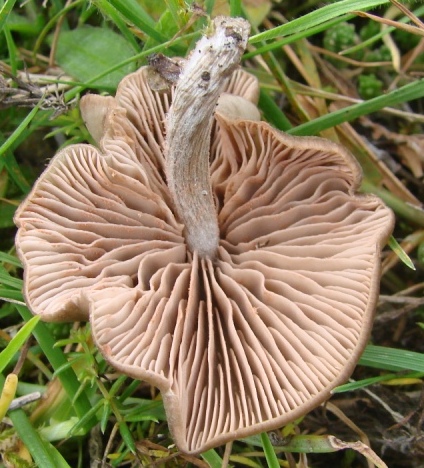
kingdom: Fungi
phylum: Basidiomycota
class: Agaricomycetes
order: Agaricales
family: Entolomataceae
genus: Entoloma
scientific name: Entoloma sericeum
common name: silkeglinsende rødblad
